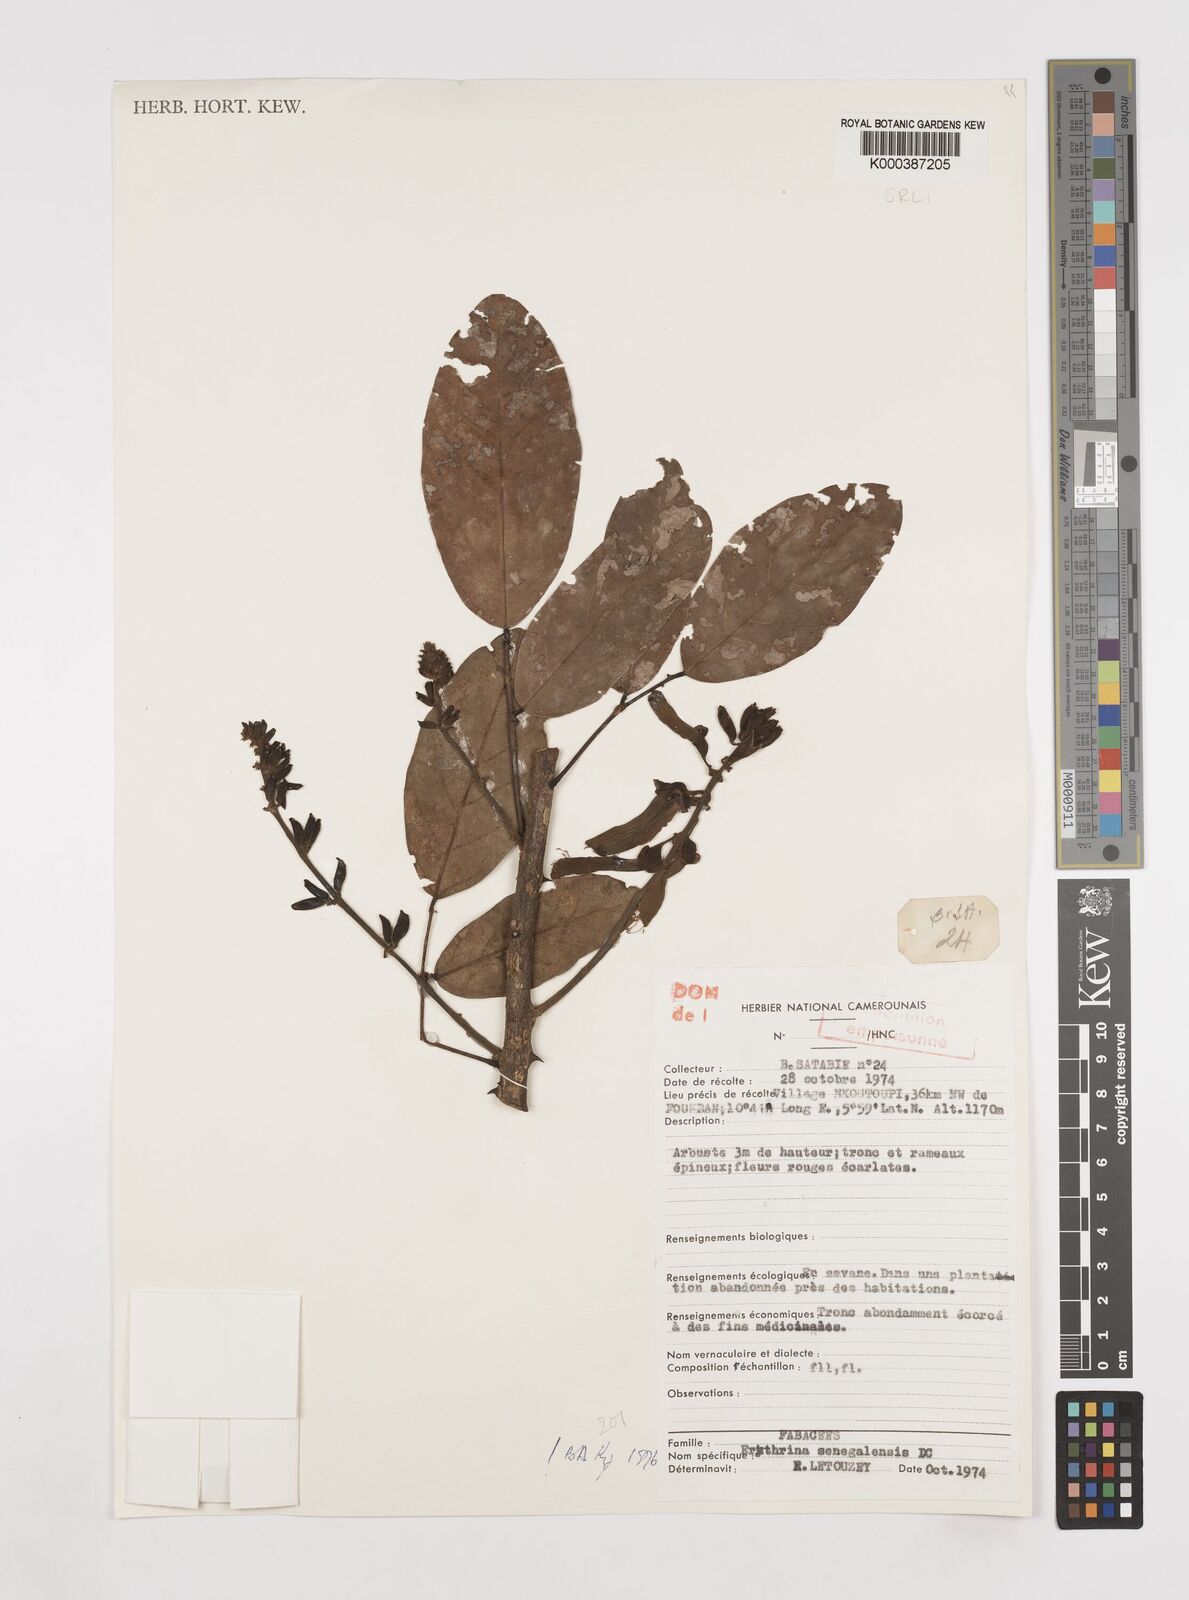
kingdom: Plantae
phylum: Tracheophyta
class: Magnoliopsida
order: Fabales
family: Fabaceae
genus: Erythrina
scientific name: Erythrina senegalensis
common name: Senegal coraltree
